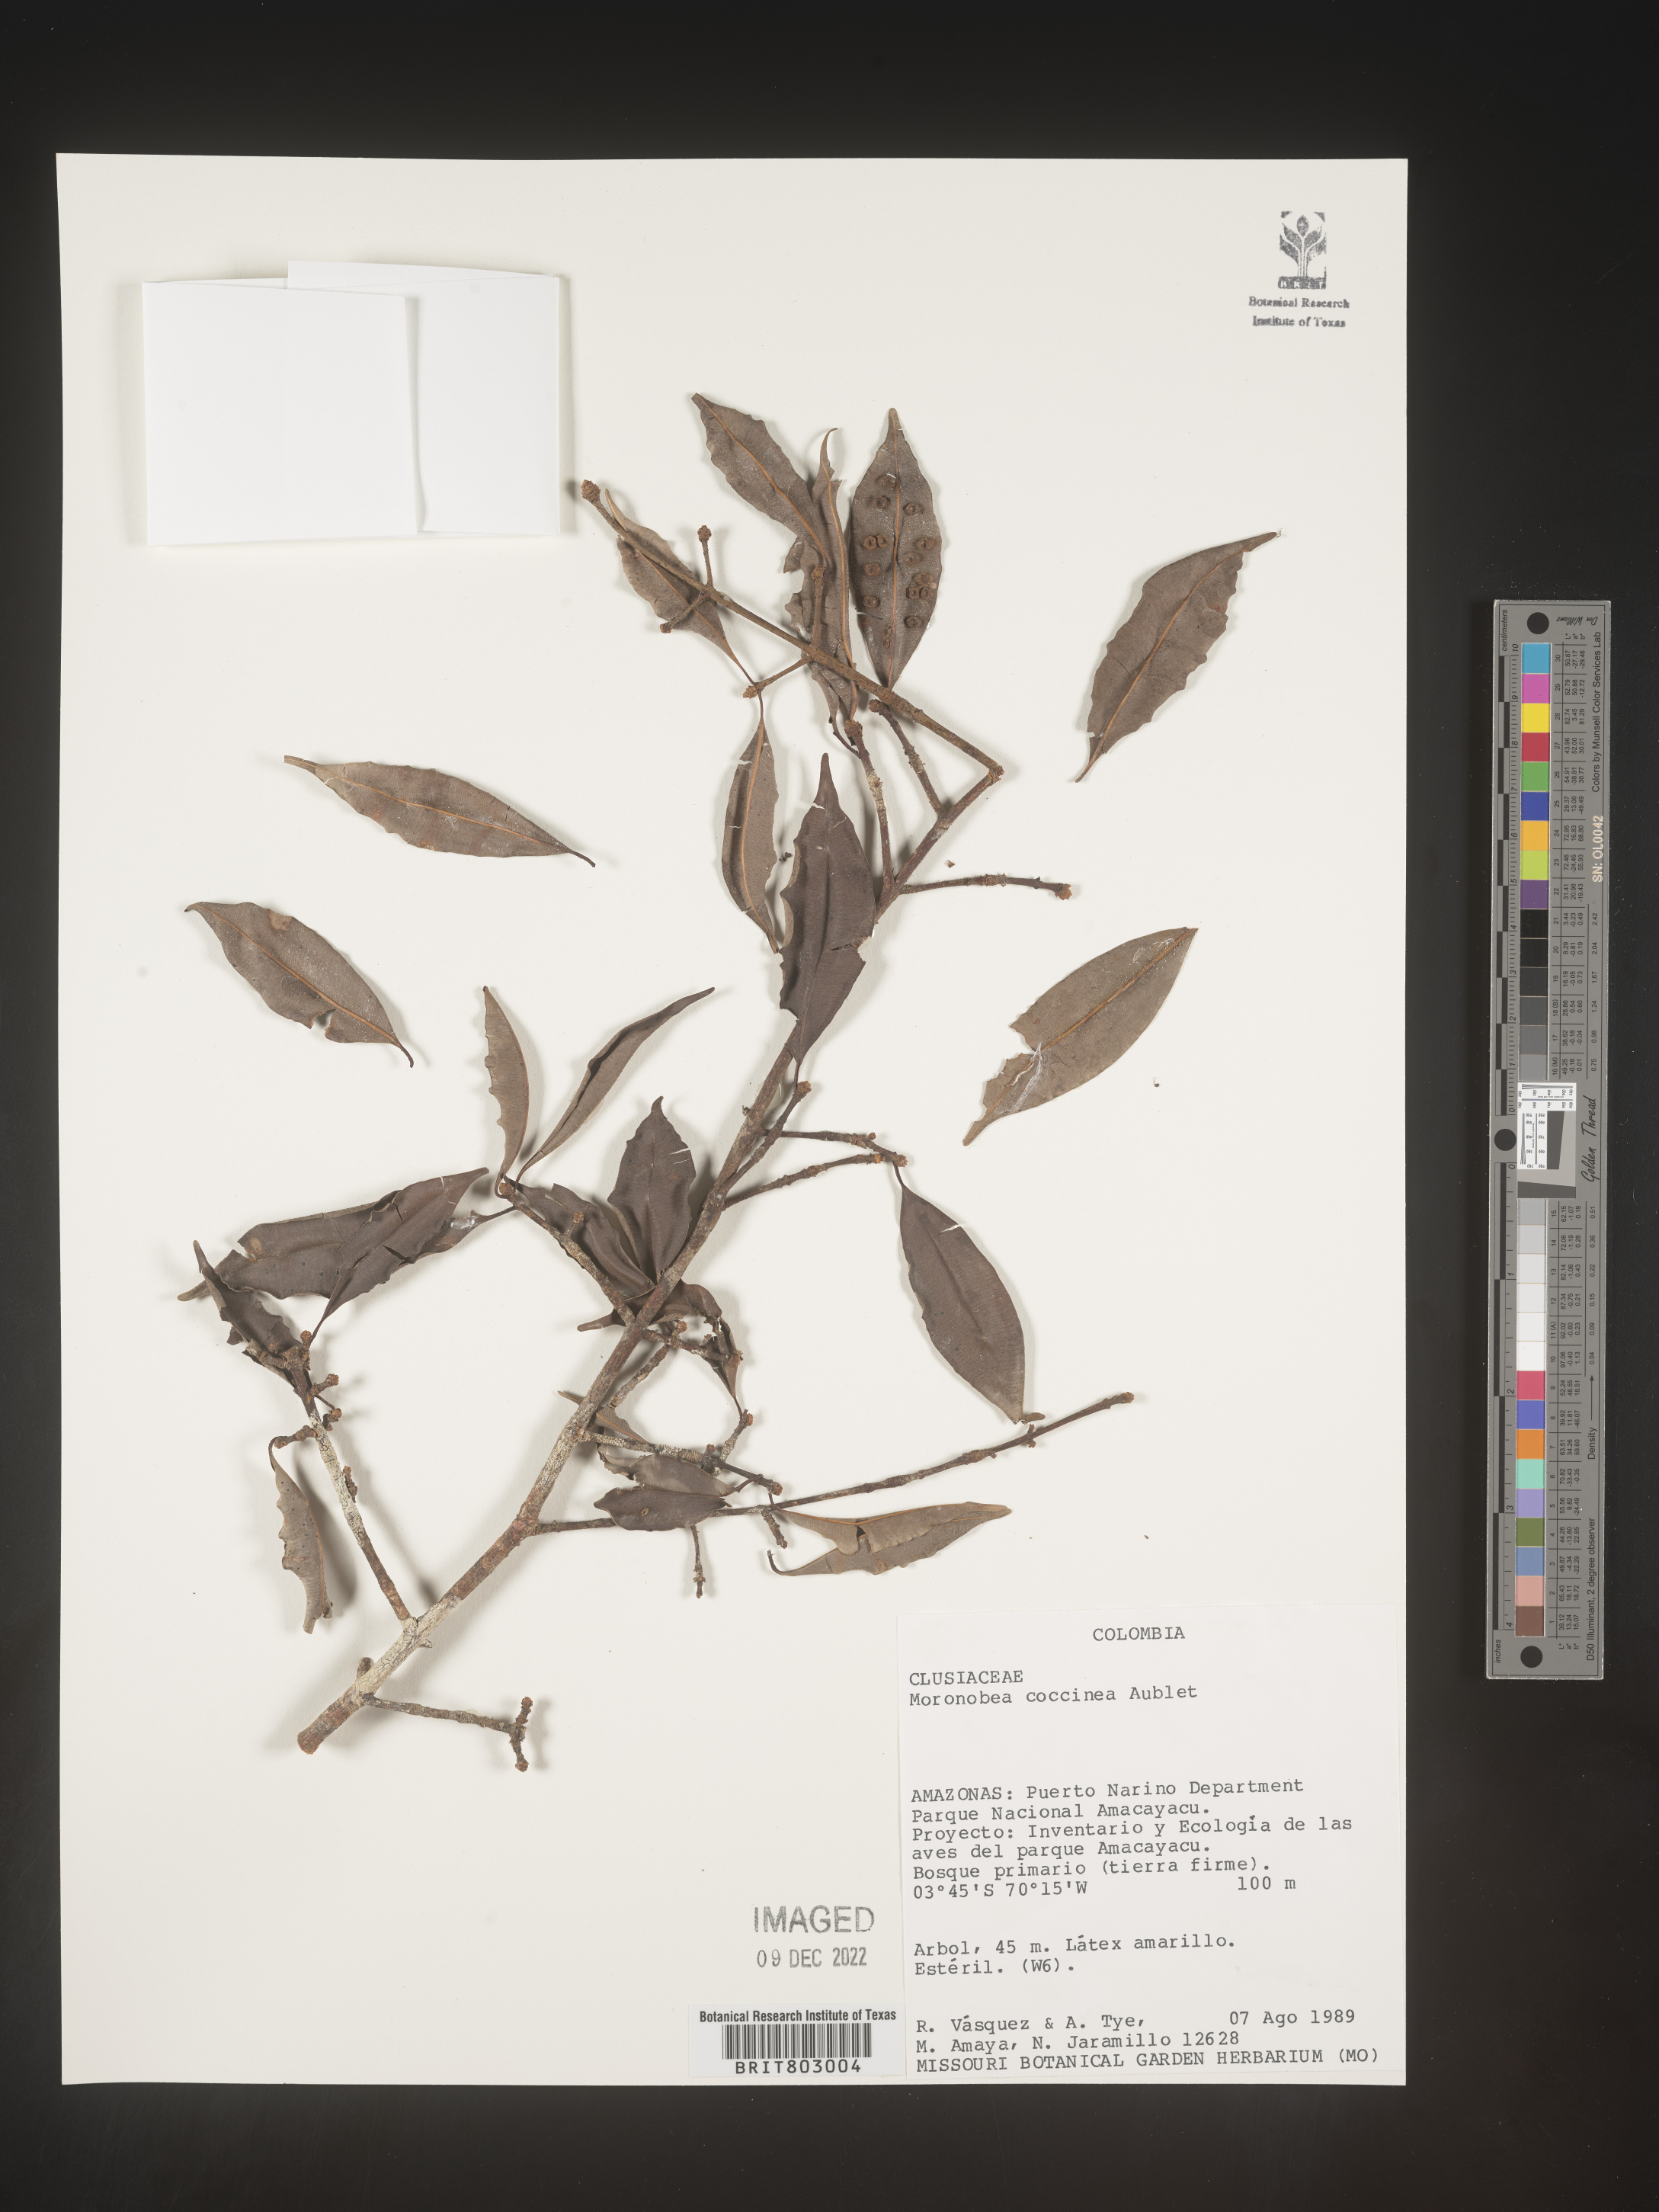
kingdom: Plantae
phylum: Tracheophyta
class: Magnoliopsida
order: Malpighiales
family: Clusiaceae
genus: Moronobea
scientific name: Moronobea
